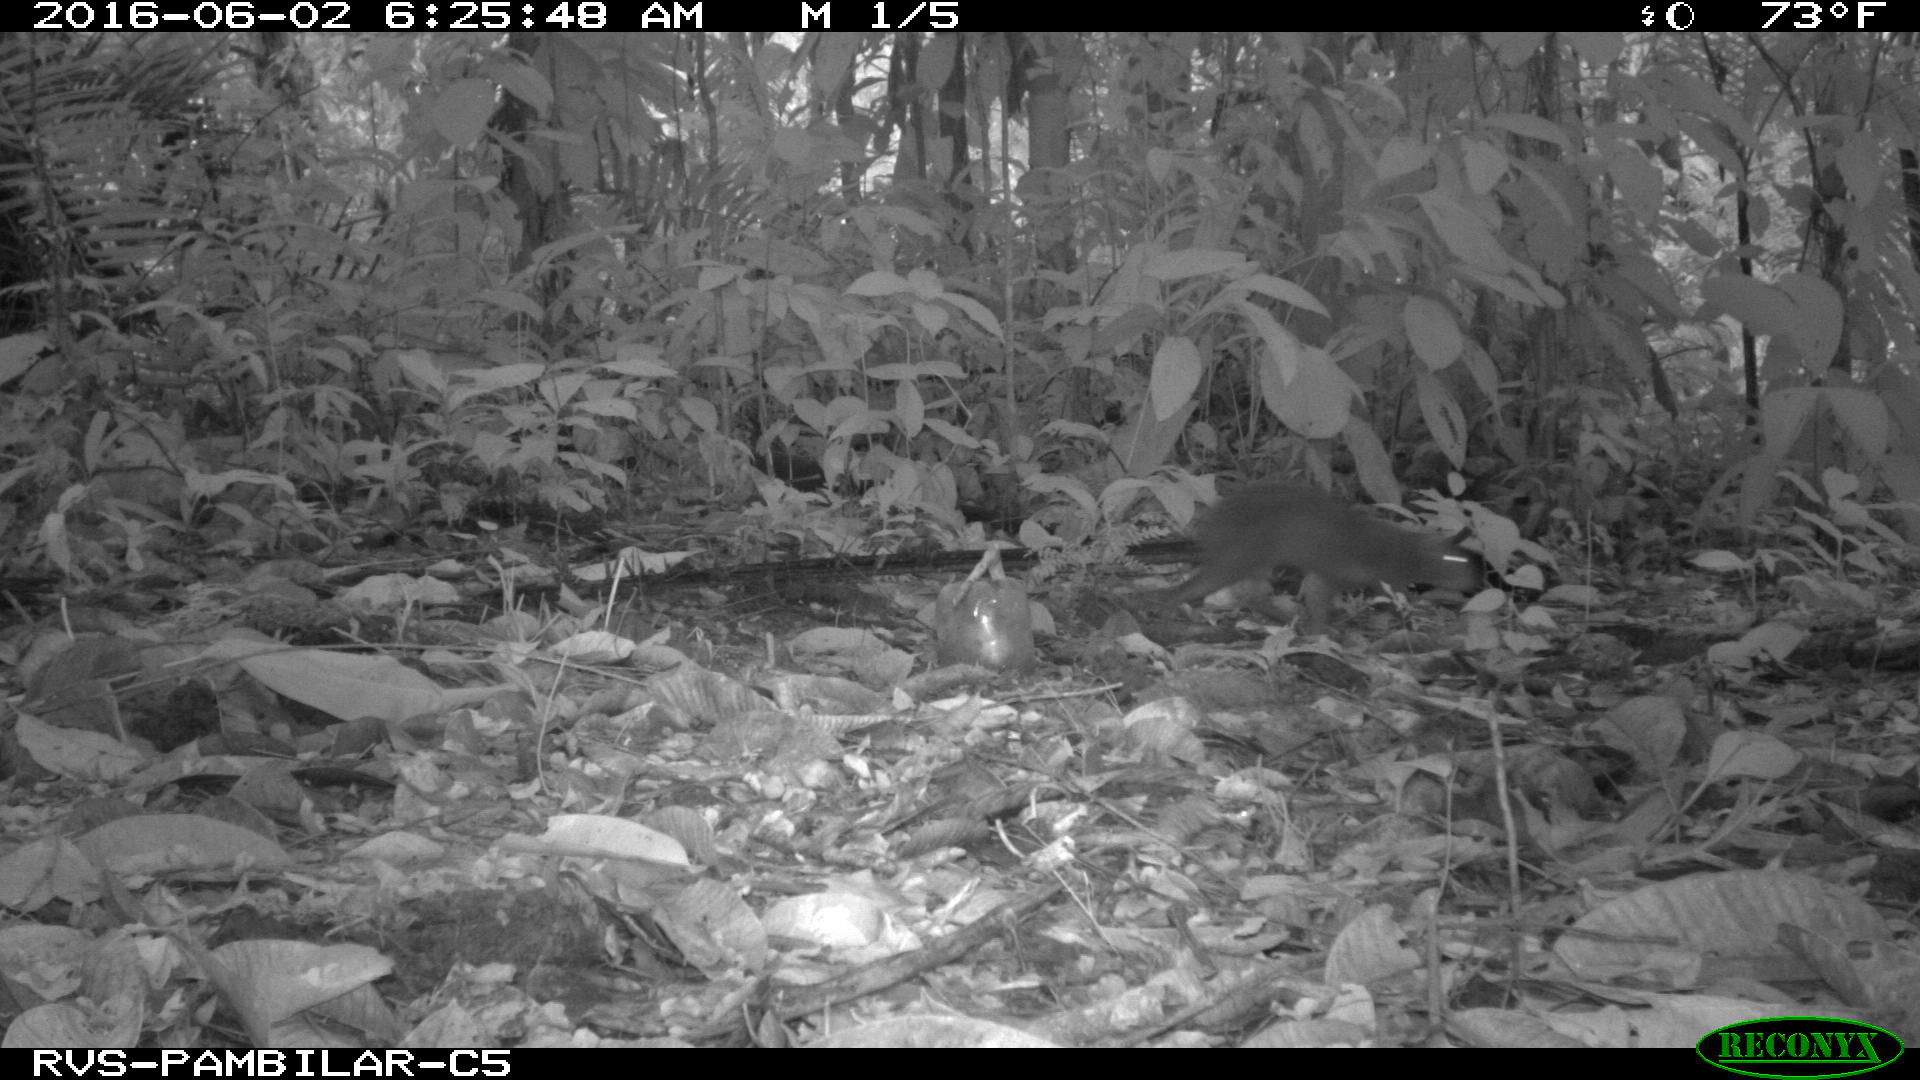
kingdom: Animalia
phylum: Chordata
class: Mammalia
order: Rodentia
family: Dasyproctidae
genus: Dasyprocta
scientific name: Dasyprocta punctata
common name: Central american agouti
